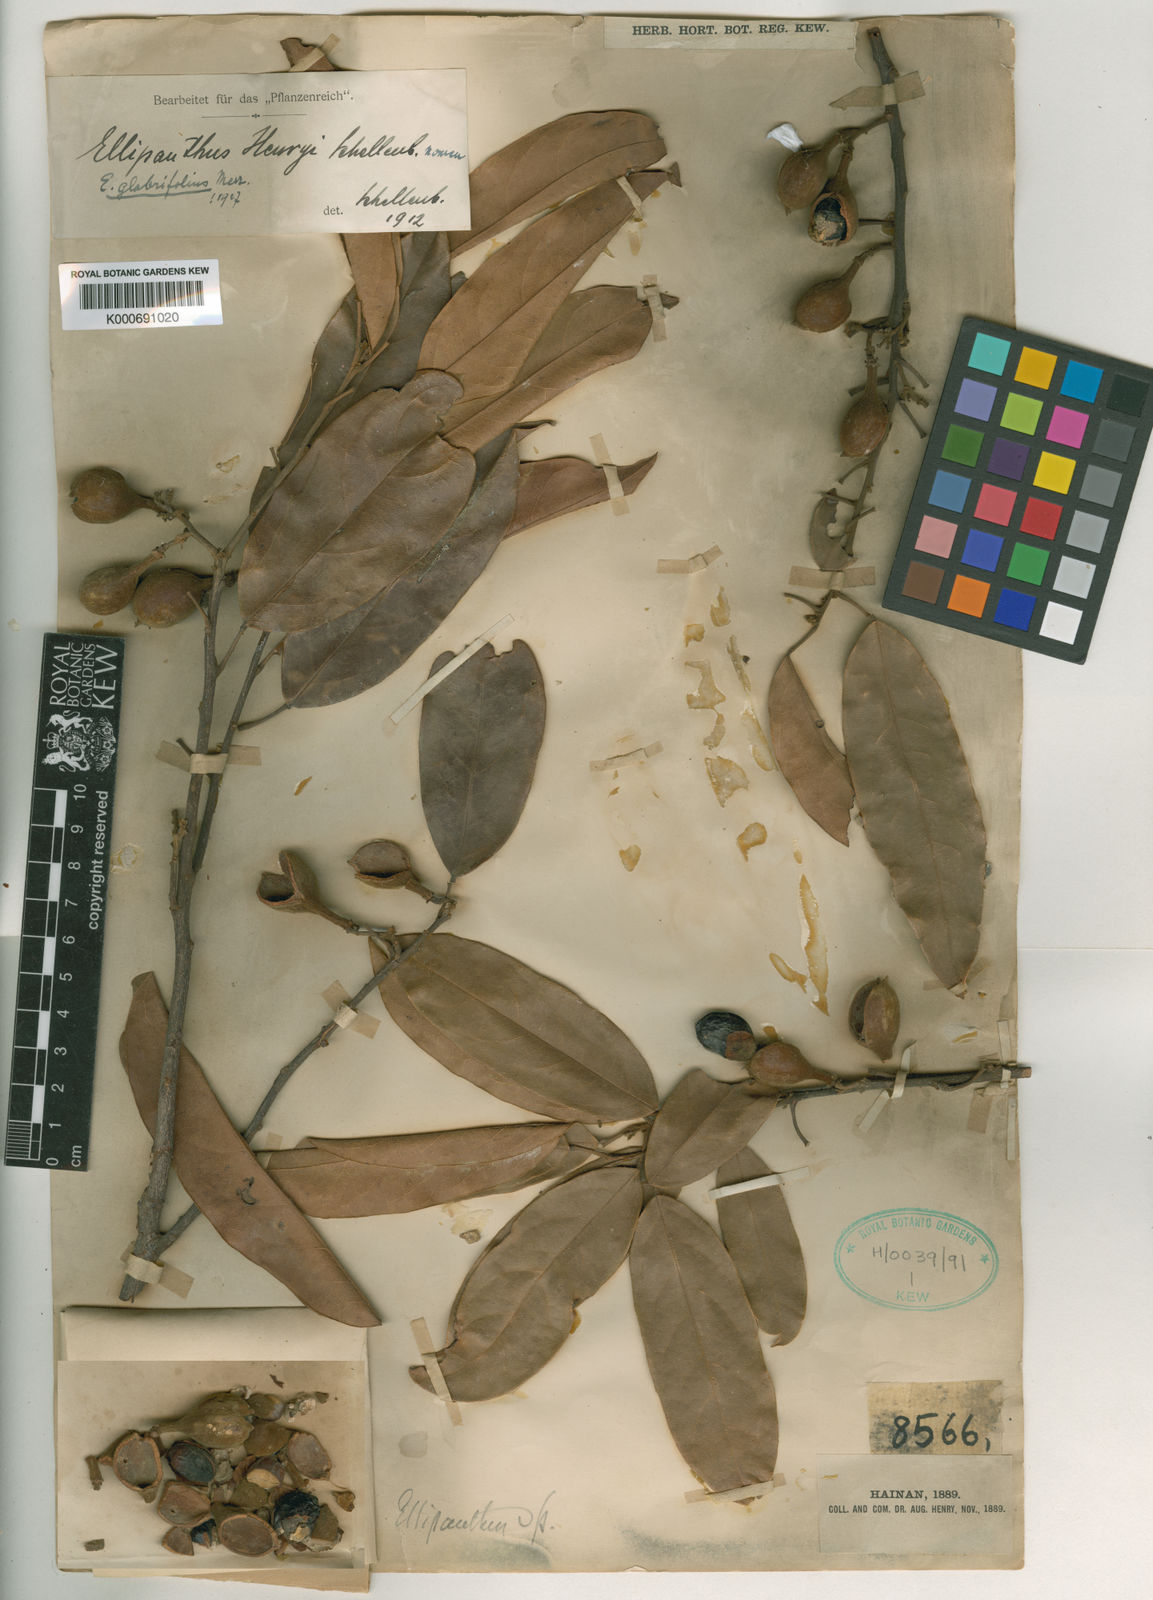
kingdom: Plantae
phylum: Tracheophyta
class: Magnoliopsida
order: Oxalidales
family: Connaraceae
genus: Ellipanthus
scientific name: Ellipanthus glabrifolius
